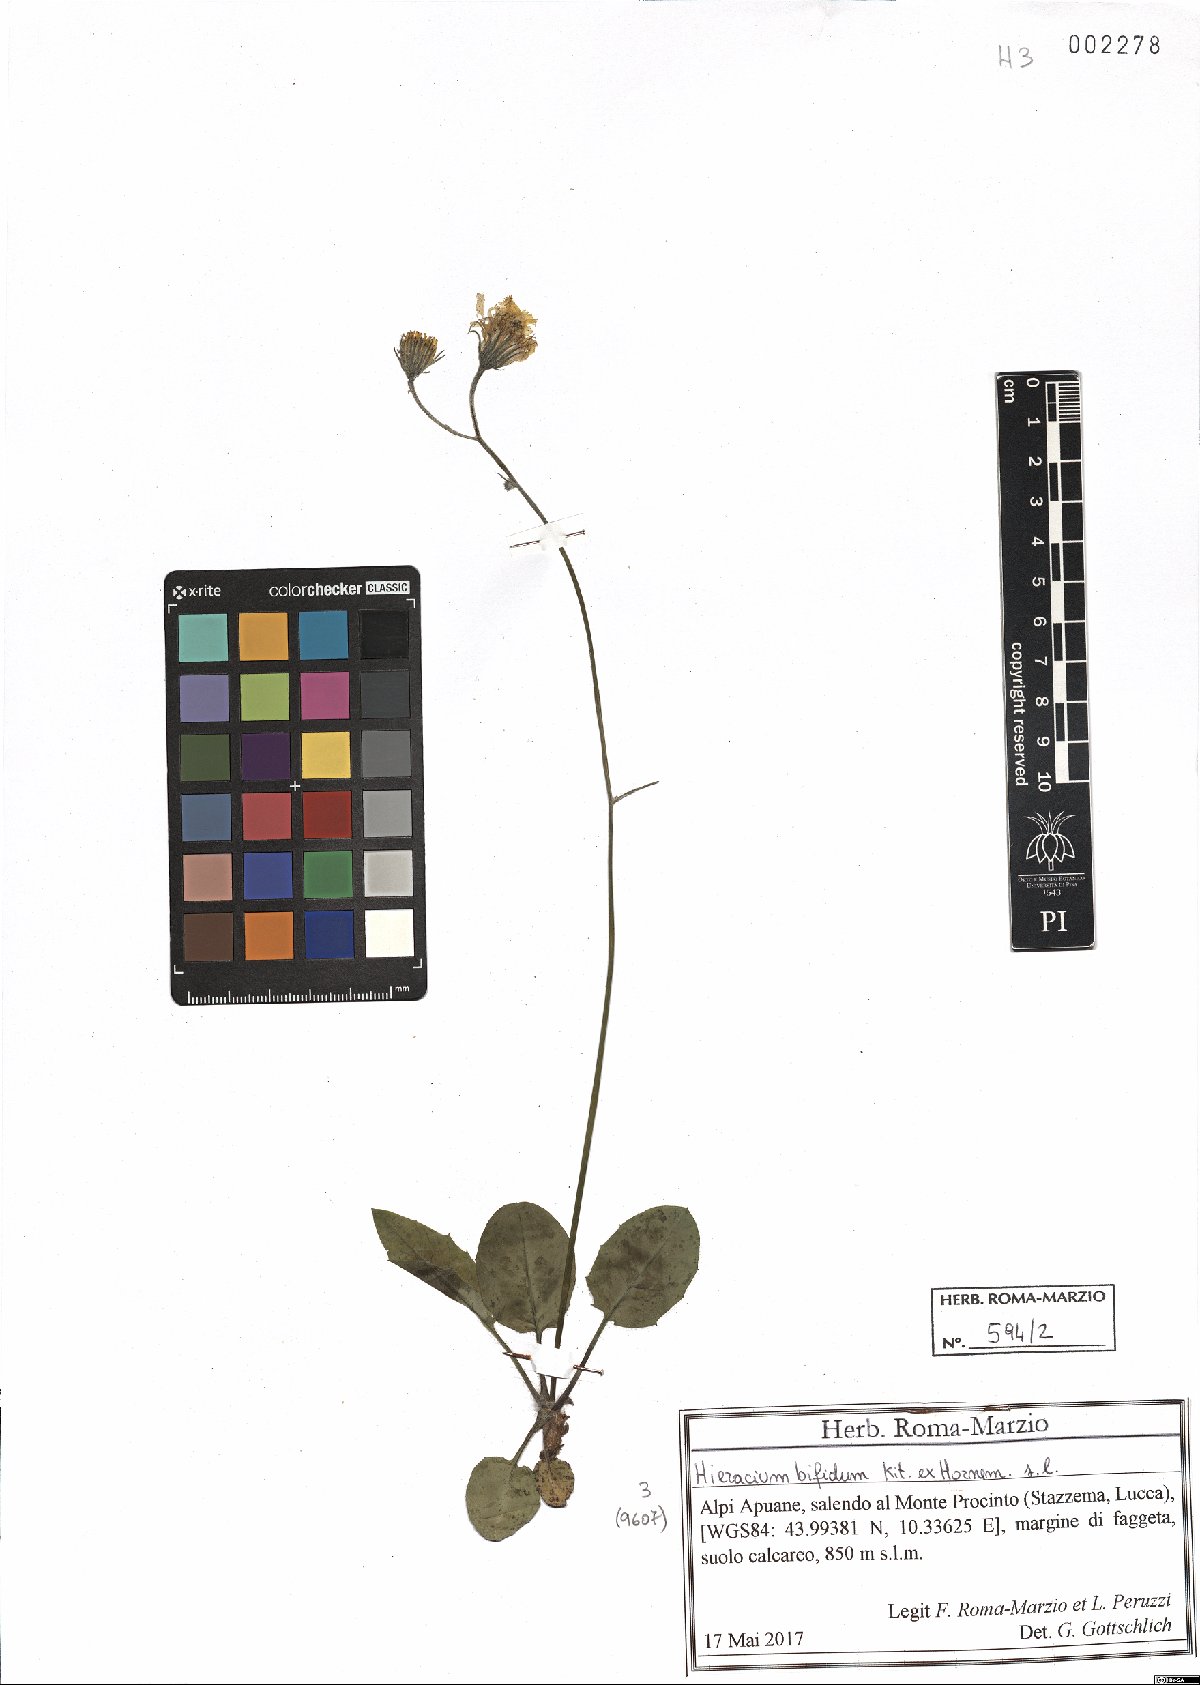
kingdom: Plantae
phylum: Tracheophyta
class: Magnoliopsida
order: Asterales
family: Asteraceae
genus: Hieracium
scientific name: Hieracium bifidum
